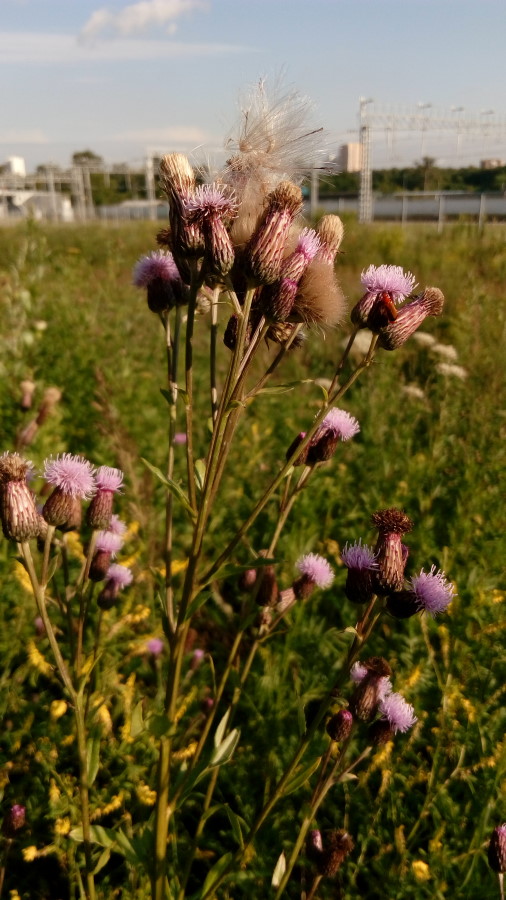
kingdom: Plantae
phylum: Tracheophyta
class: Magnoliopsida
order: Asterales
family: Asteraceae
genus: Cirsium
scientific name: Cirsium arvense
